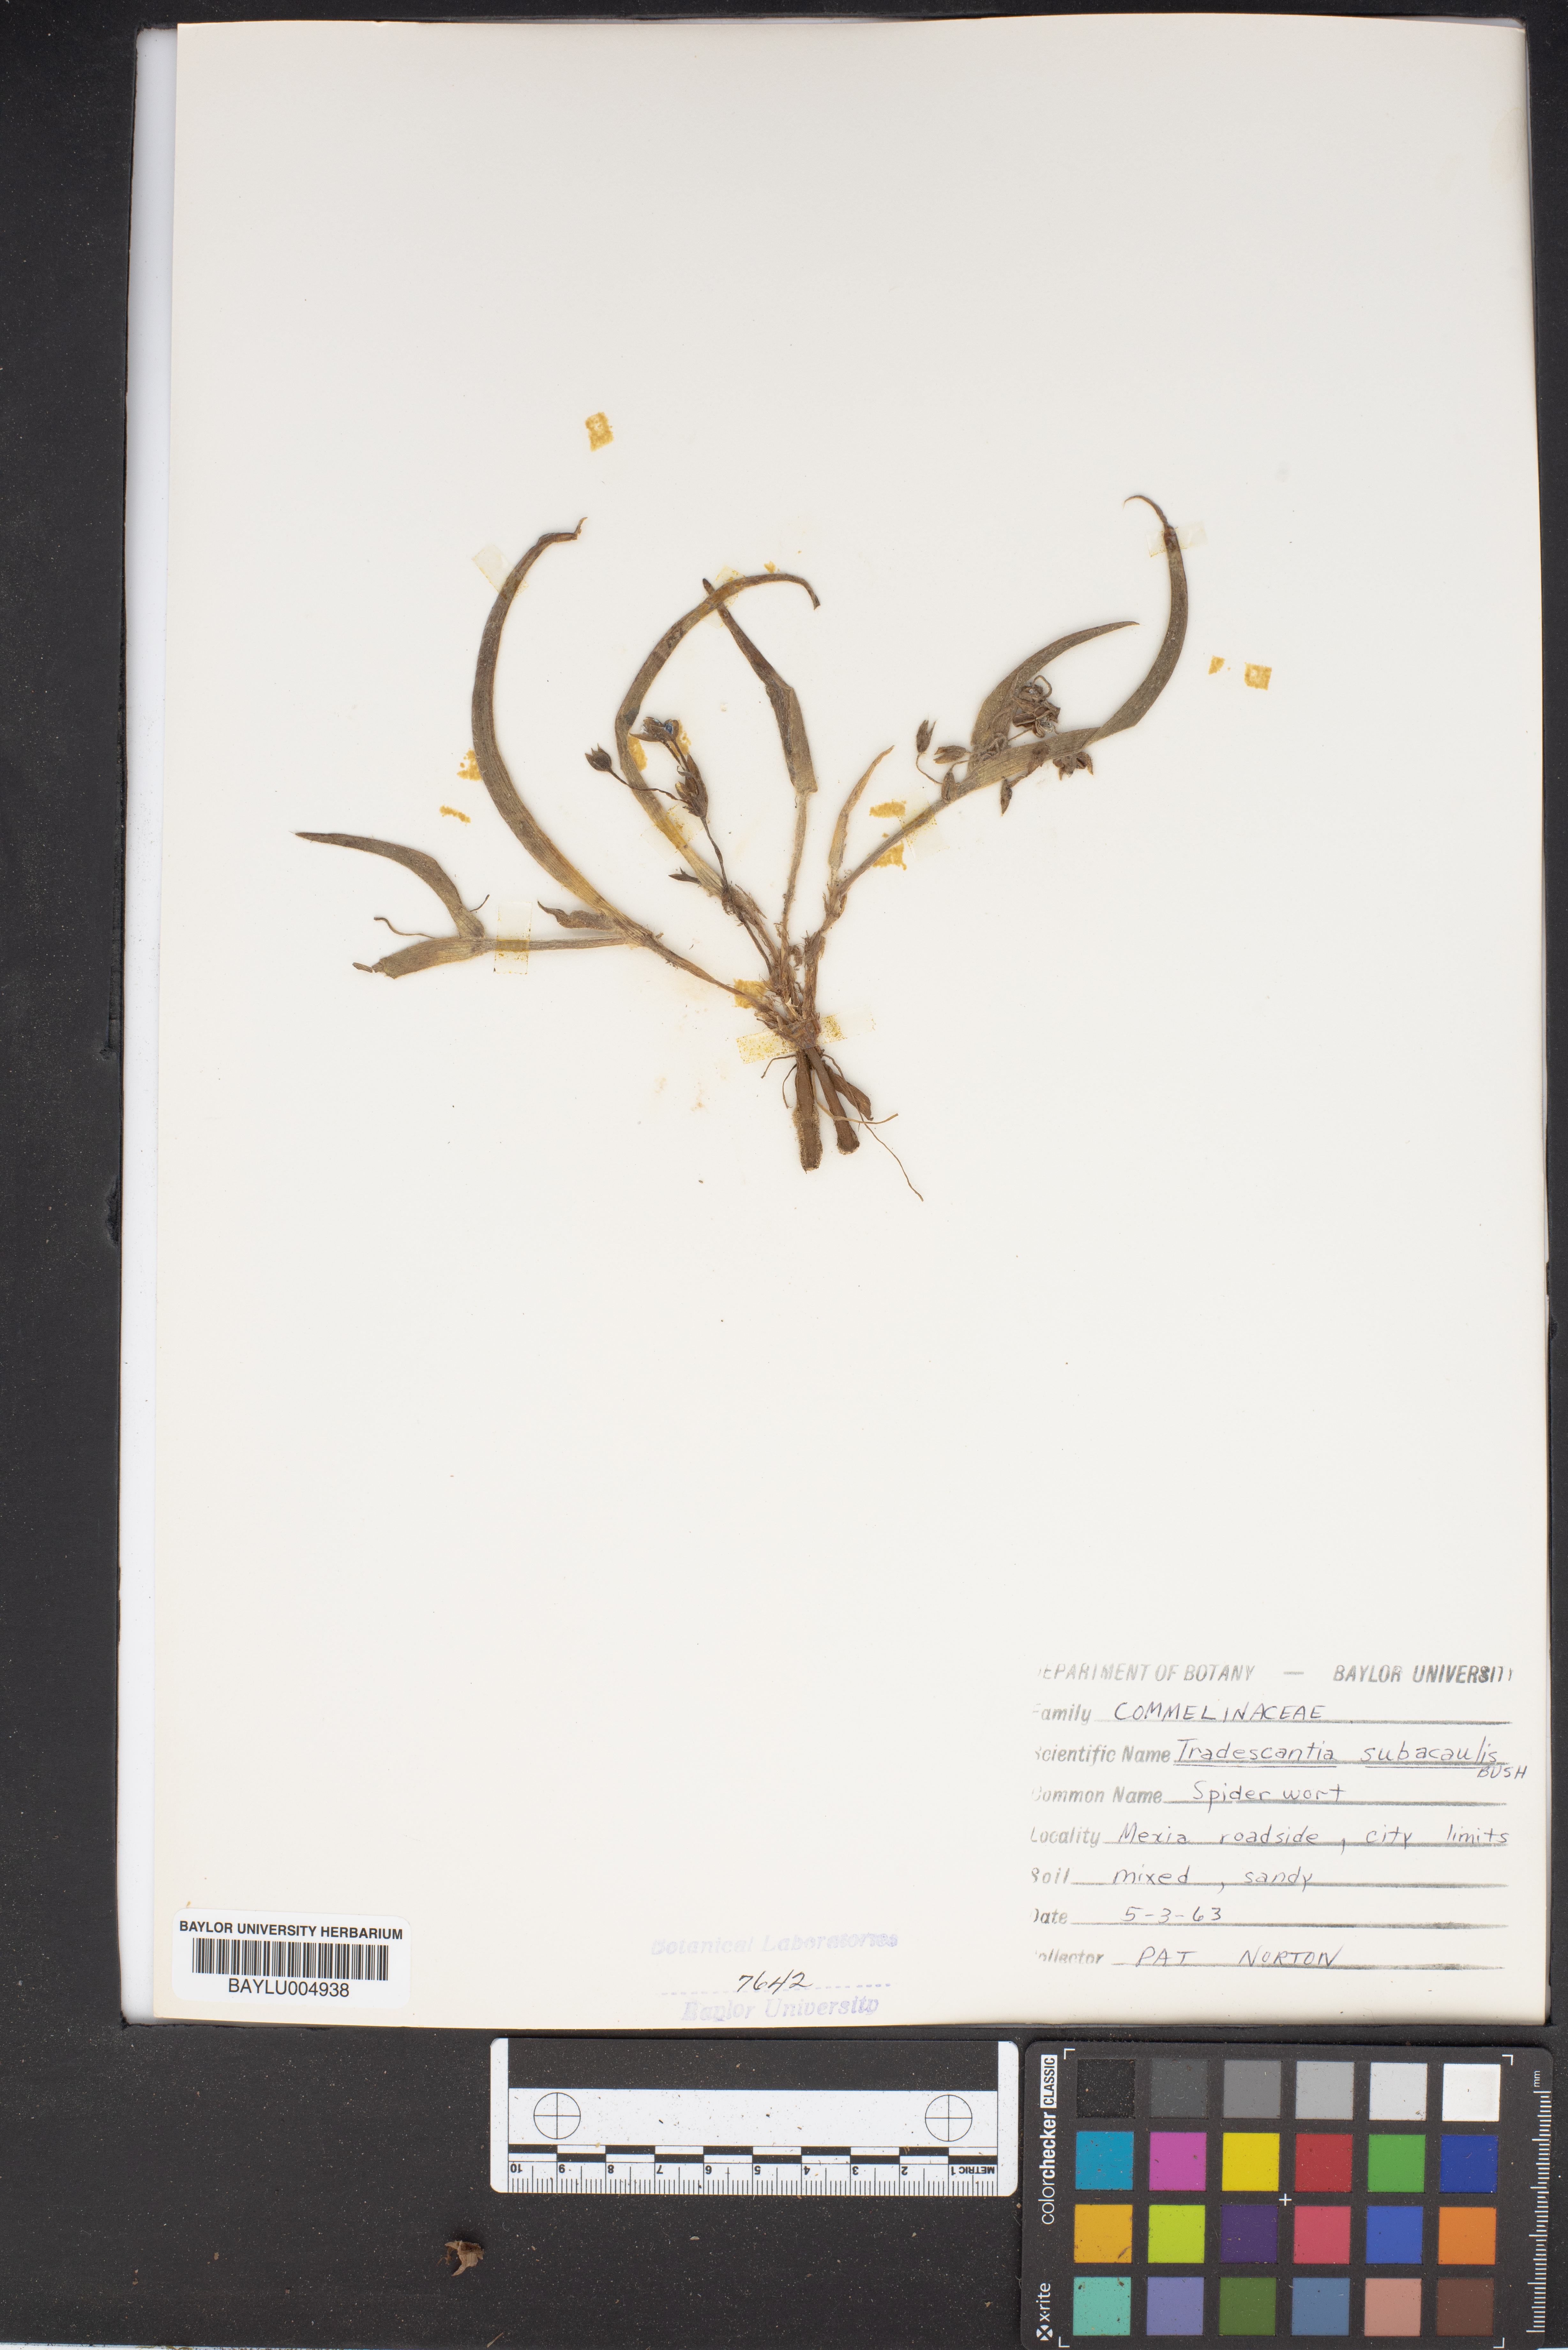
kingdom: Plantae
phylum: Tracheophyta
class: Liliopsida
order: Commelinales
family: Commelinaceae
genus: Tradescantia
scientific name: Tradescantia subacaulis
